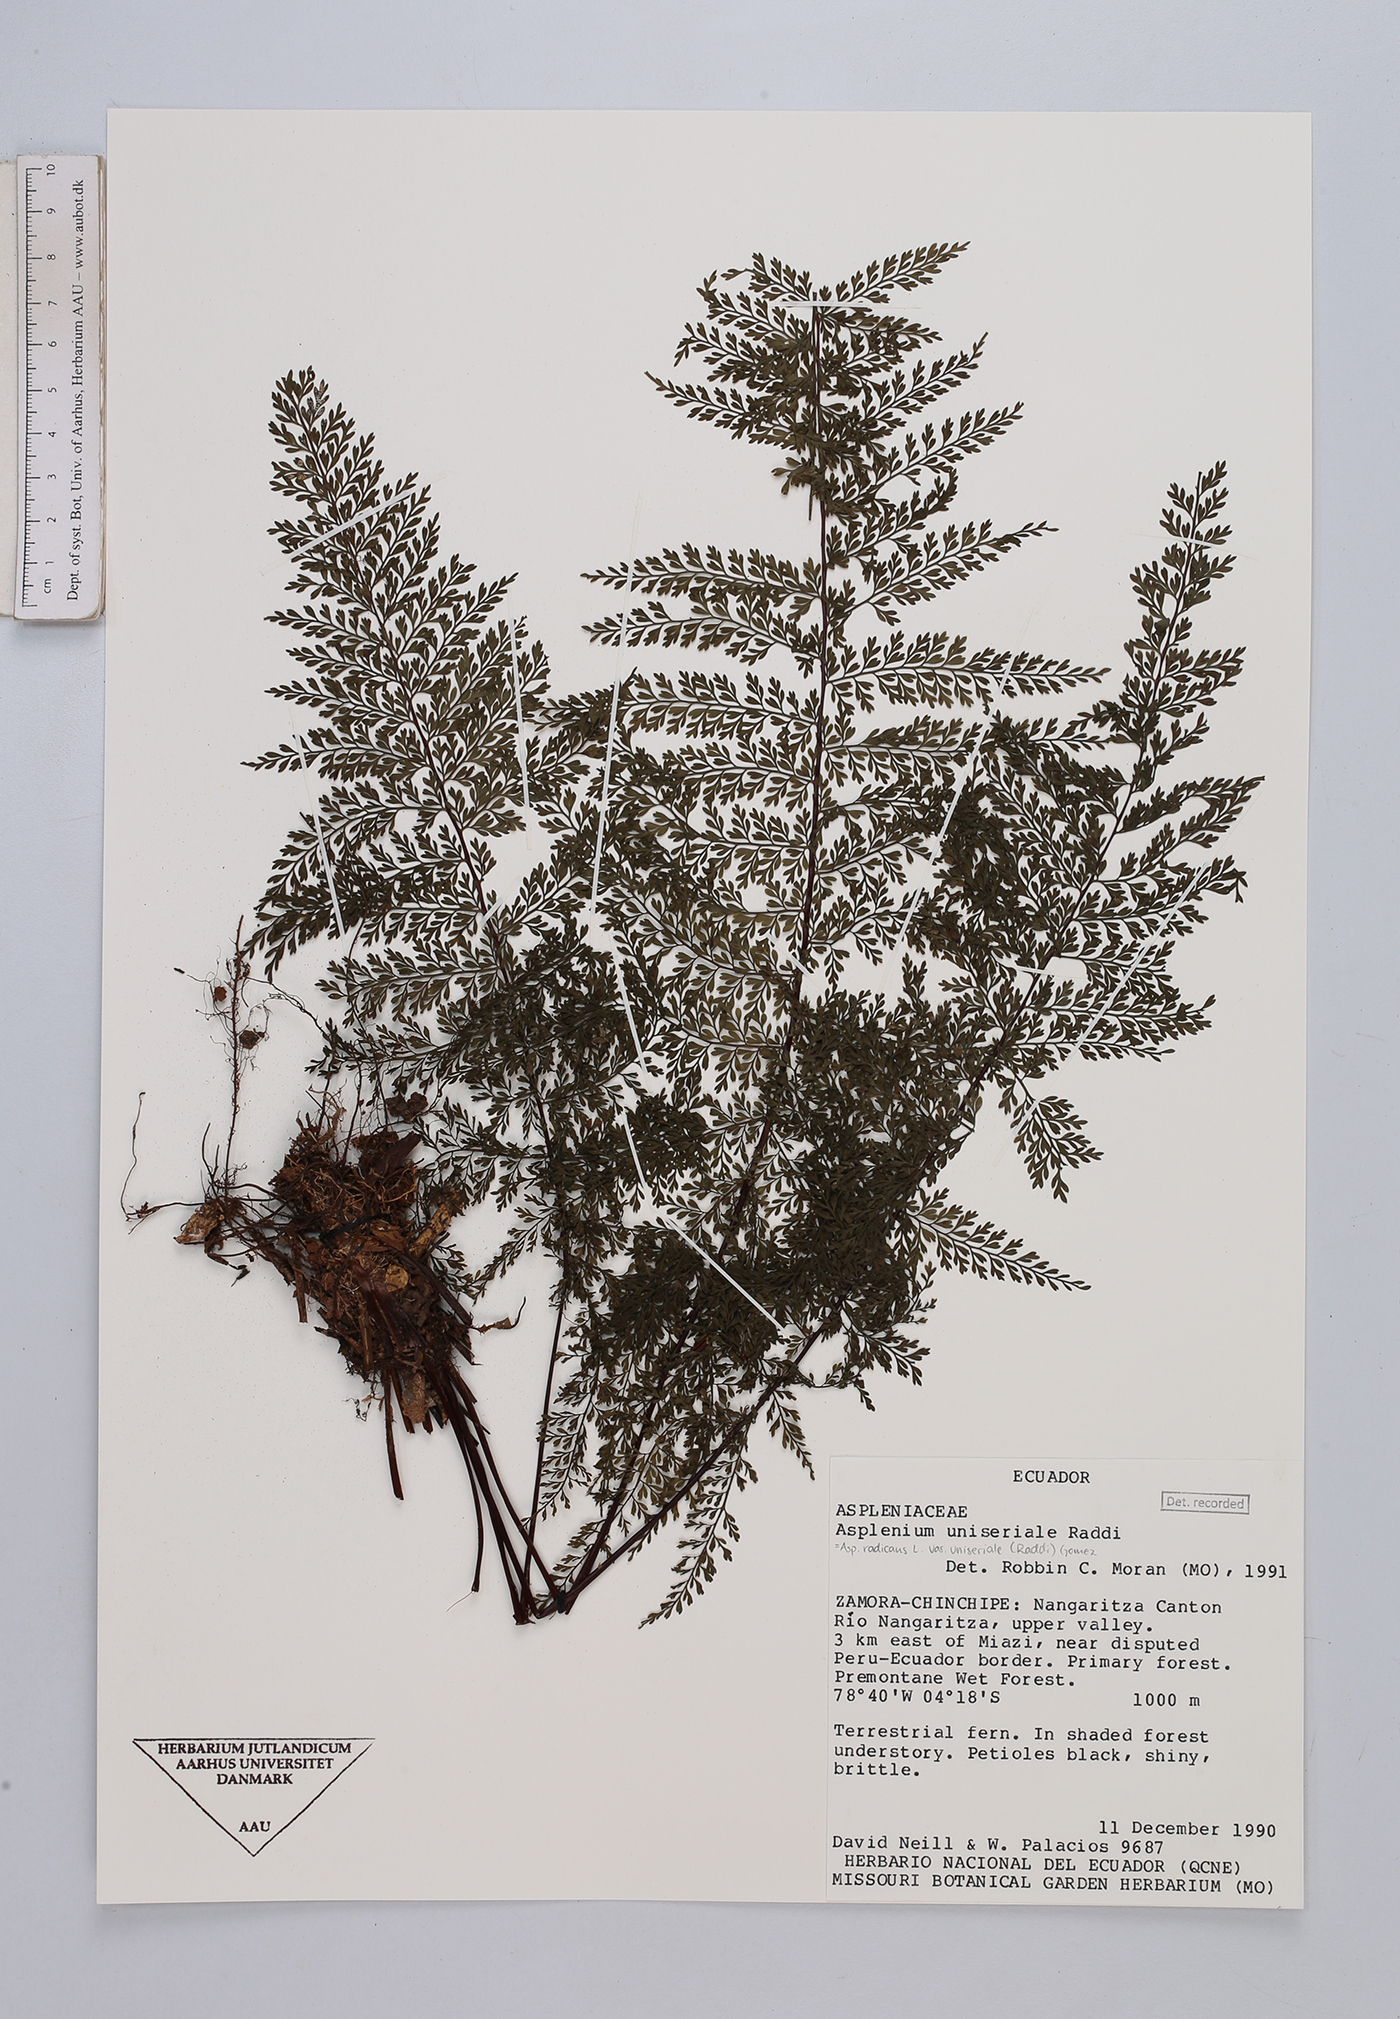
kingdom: Plantae
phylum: Tracheophyta
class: Polypodiopsida
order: Polypodiales
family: Aspleniaceae
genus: Asplenium
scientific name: Asplenium uniseriale
